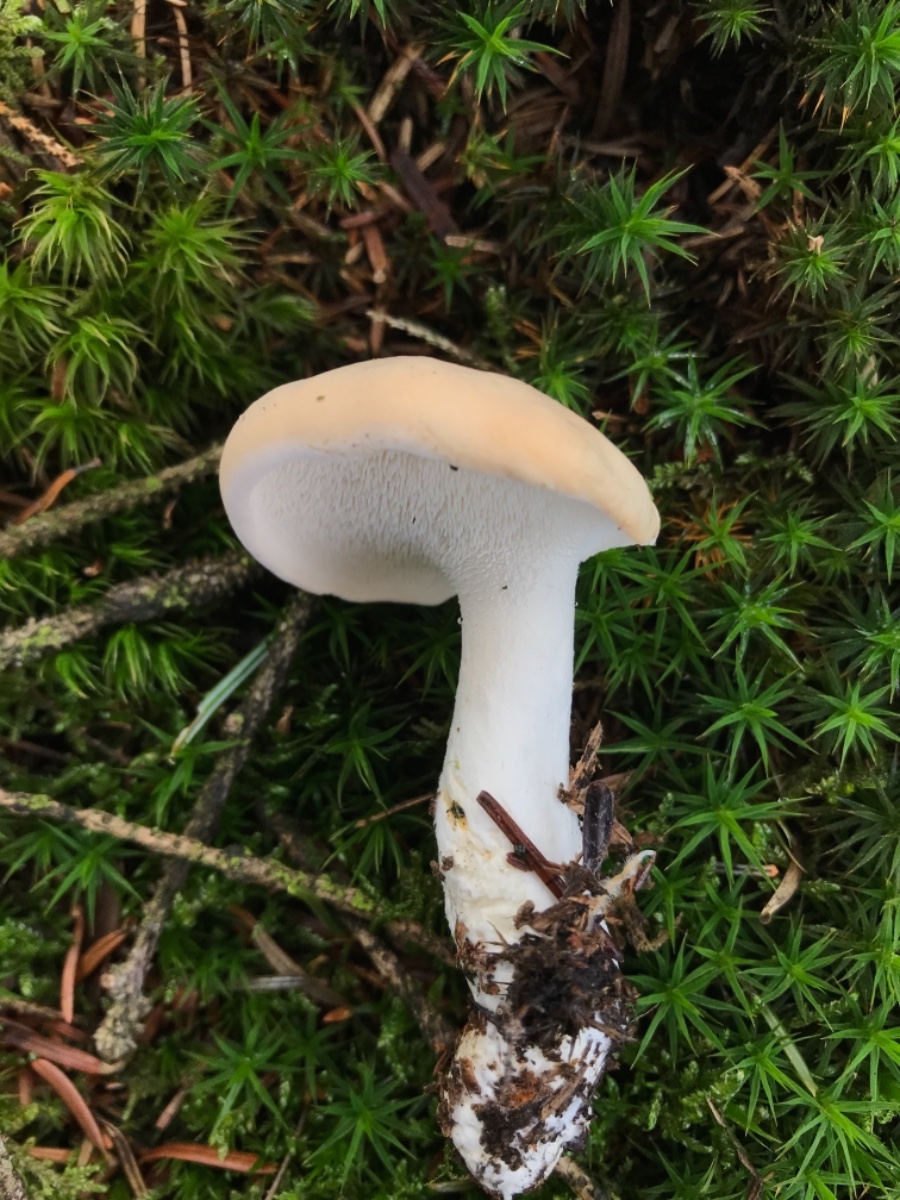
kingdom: Fungi
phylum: Basidiomycota
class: Agaricomycetes
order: Cantharellales
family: Hydnaceae
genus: Hydnum
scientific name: Hydnum repandum
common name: almindelig pigsvamp
